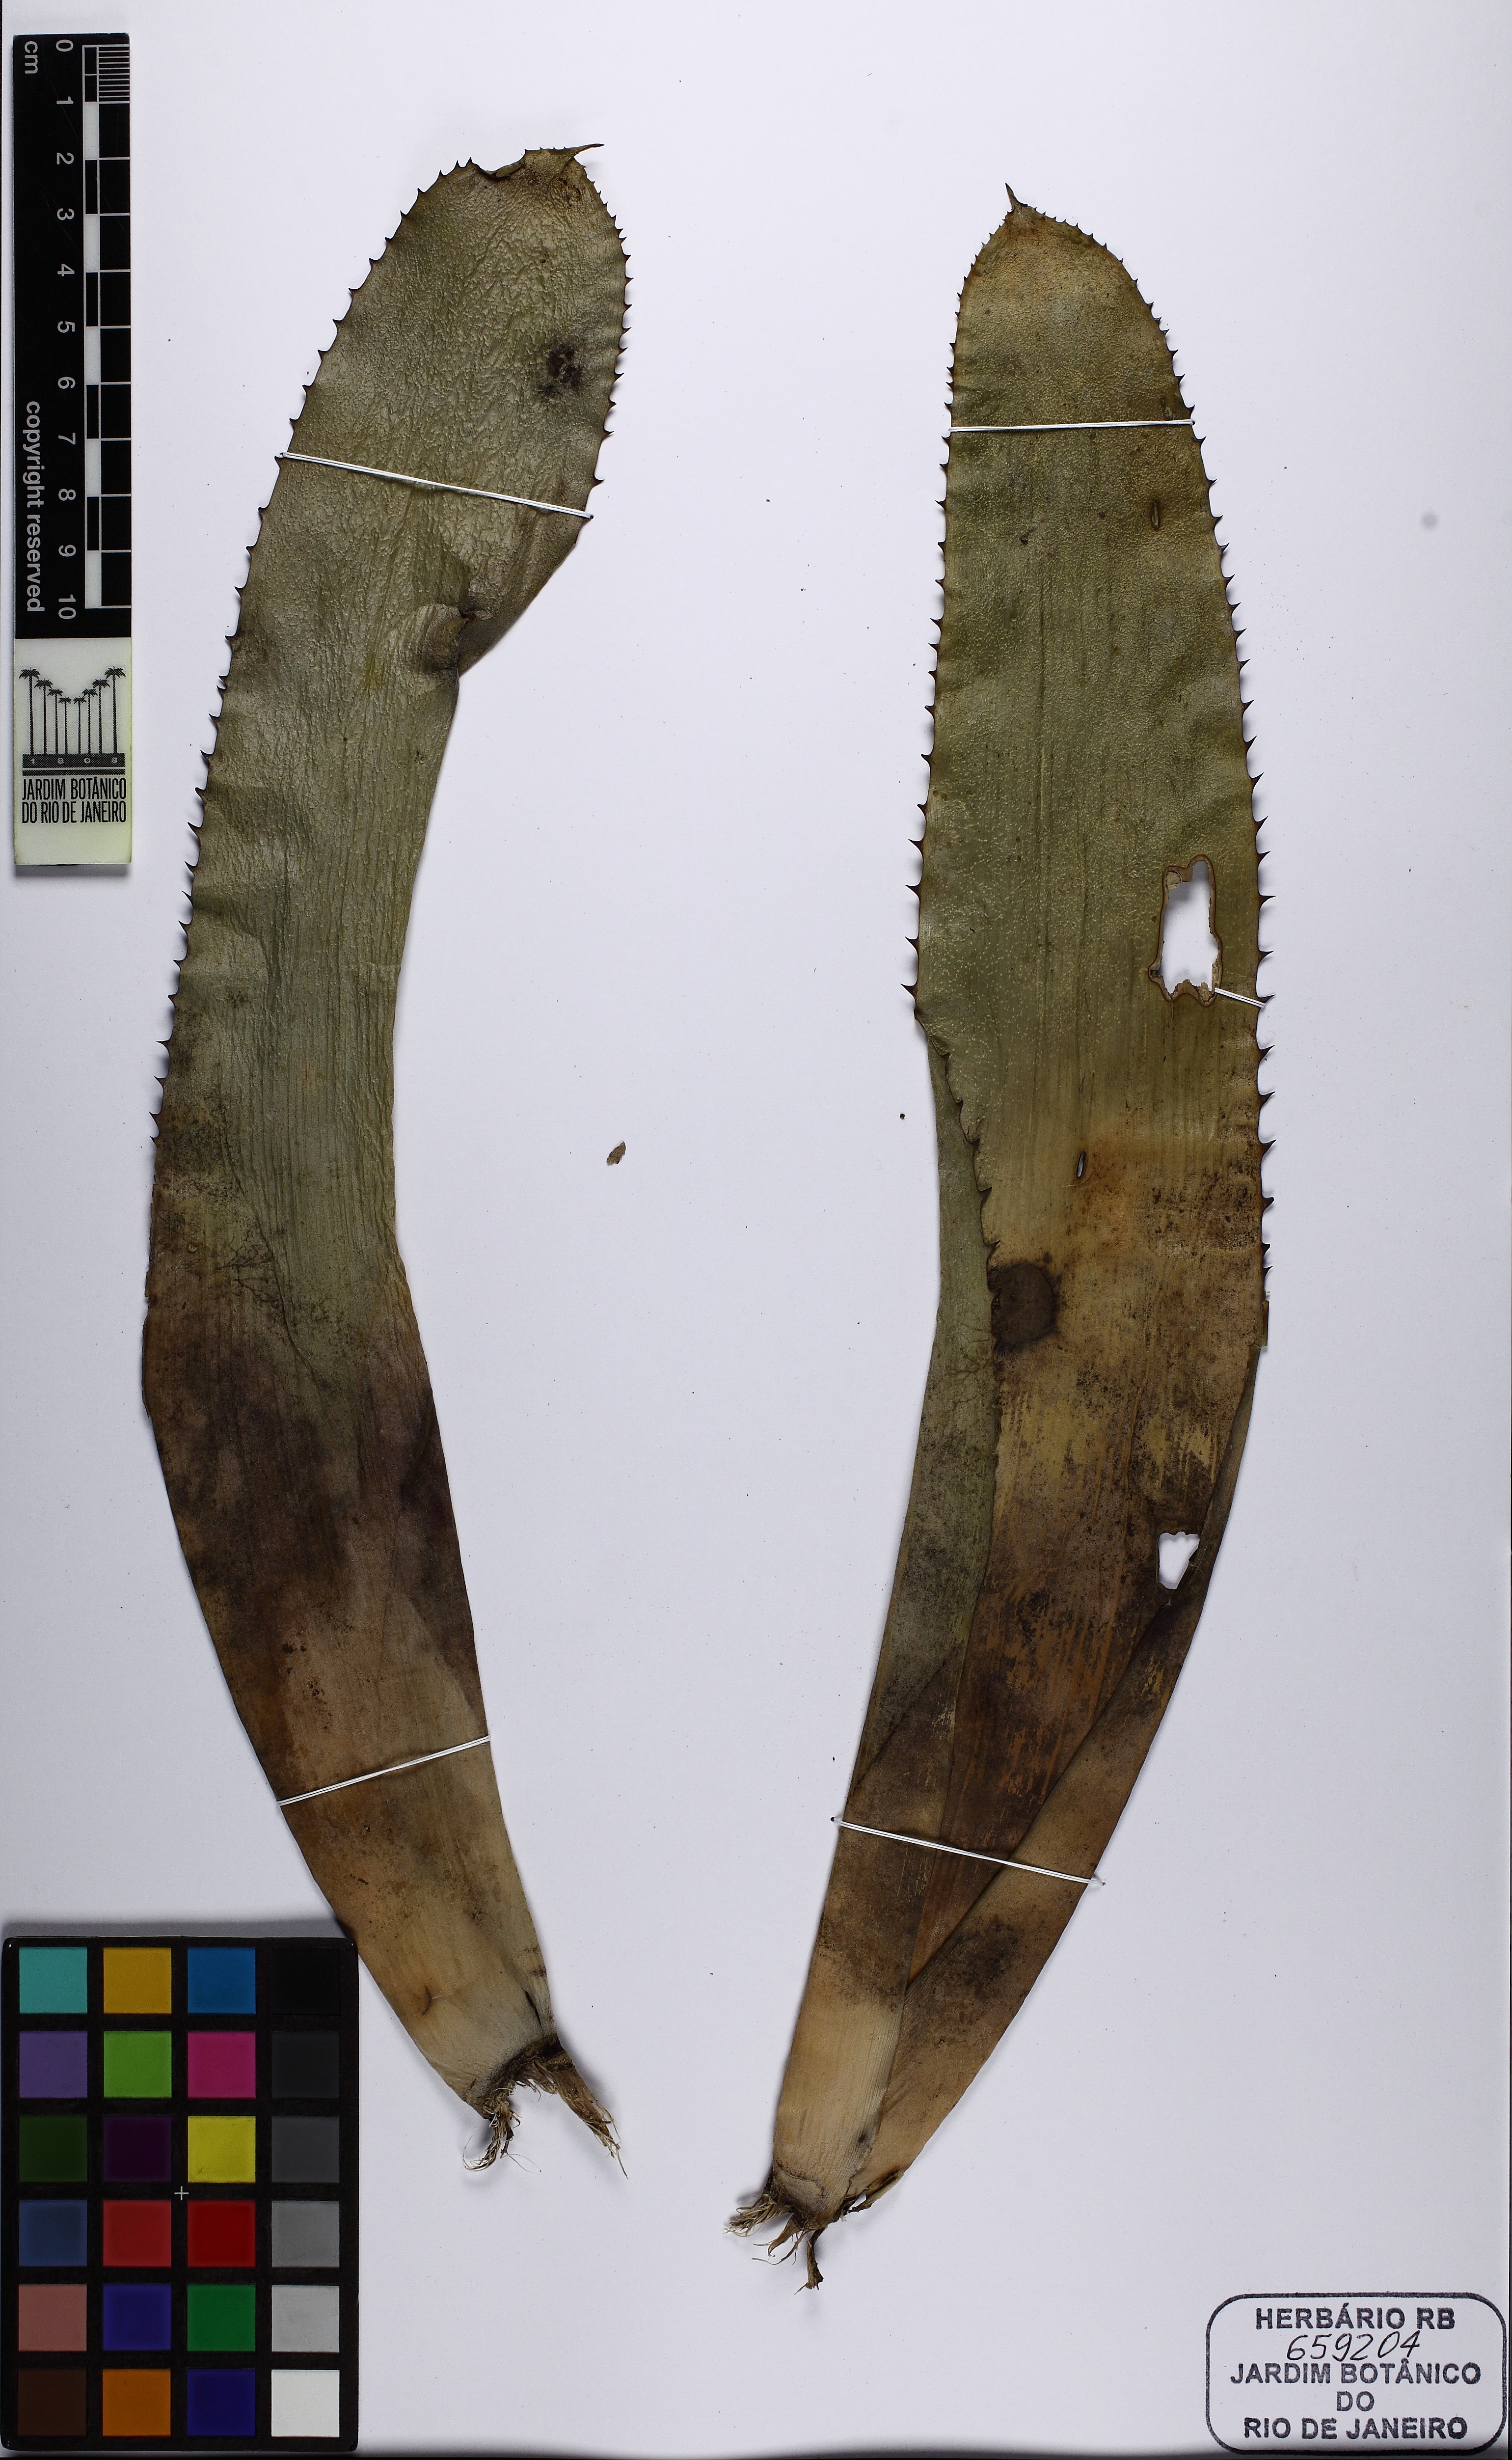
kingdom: Plantae
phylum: Tracheophyta
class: Liliopsida
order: Poales
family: Bromeliaceae
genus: Aechmea
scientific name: Aechmea fasciata
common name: Urnplant
